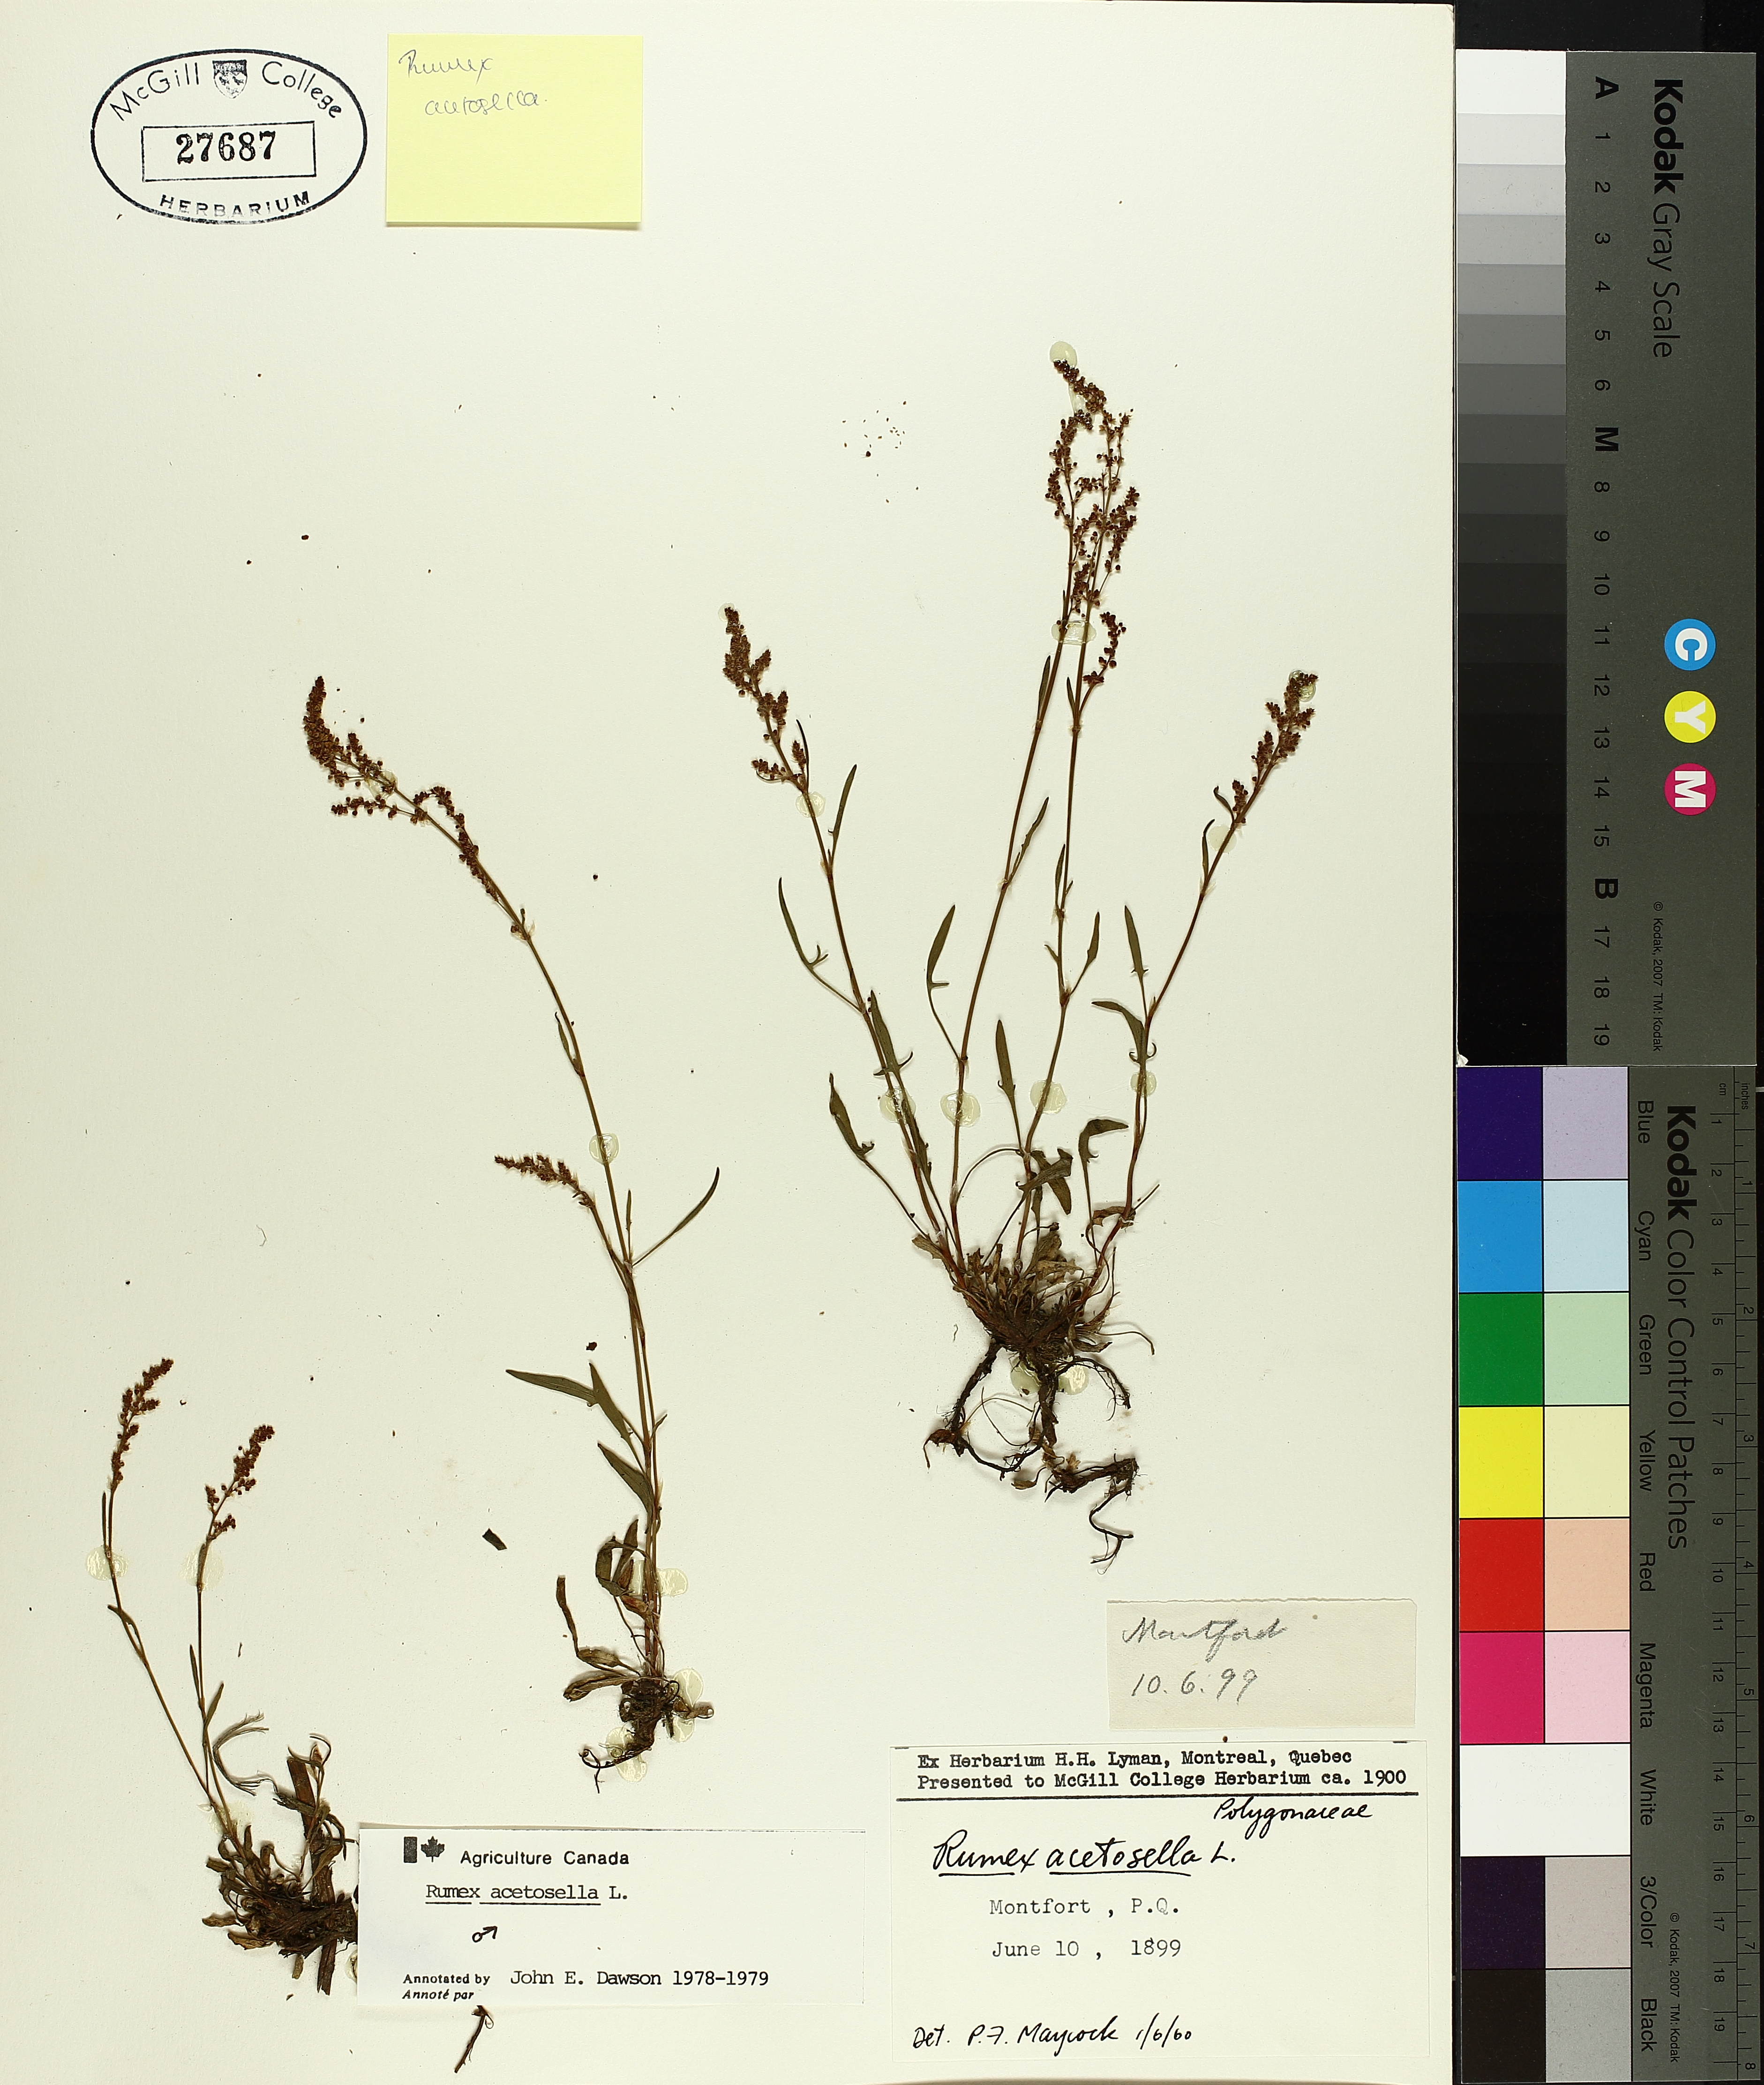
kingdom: Plantae
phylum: Tracheophyta
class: Magnoliopsida
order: Caryophyllales
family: Polygonaceae
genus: Rumex
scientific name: Rumex acetosella
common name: Common sheep sorrel
